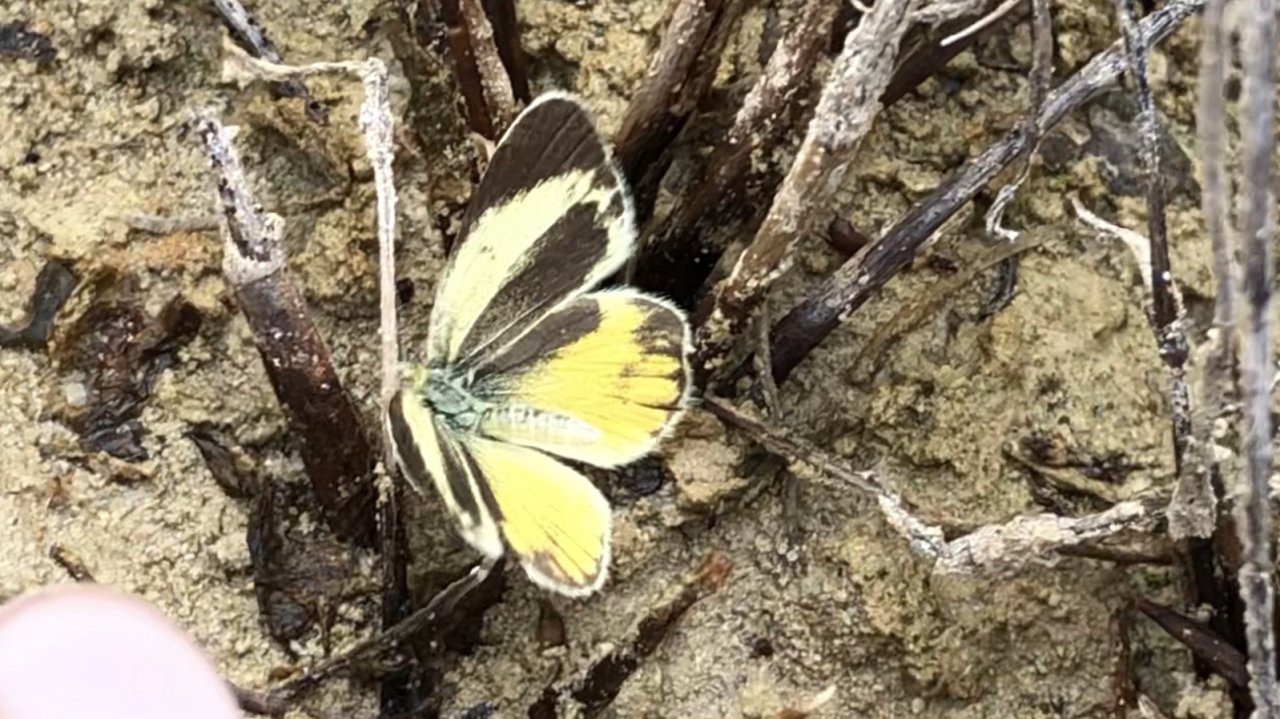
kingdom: Animalia
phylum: Arthropoda
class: Insecta
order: Lepidoptera
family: Pieridae
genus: Nathalis
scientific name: Nathalis iole
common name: Dainty Sulphur
